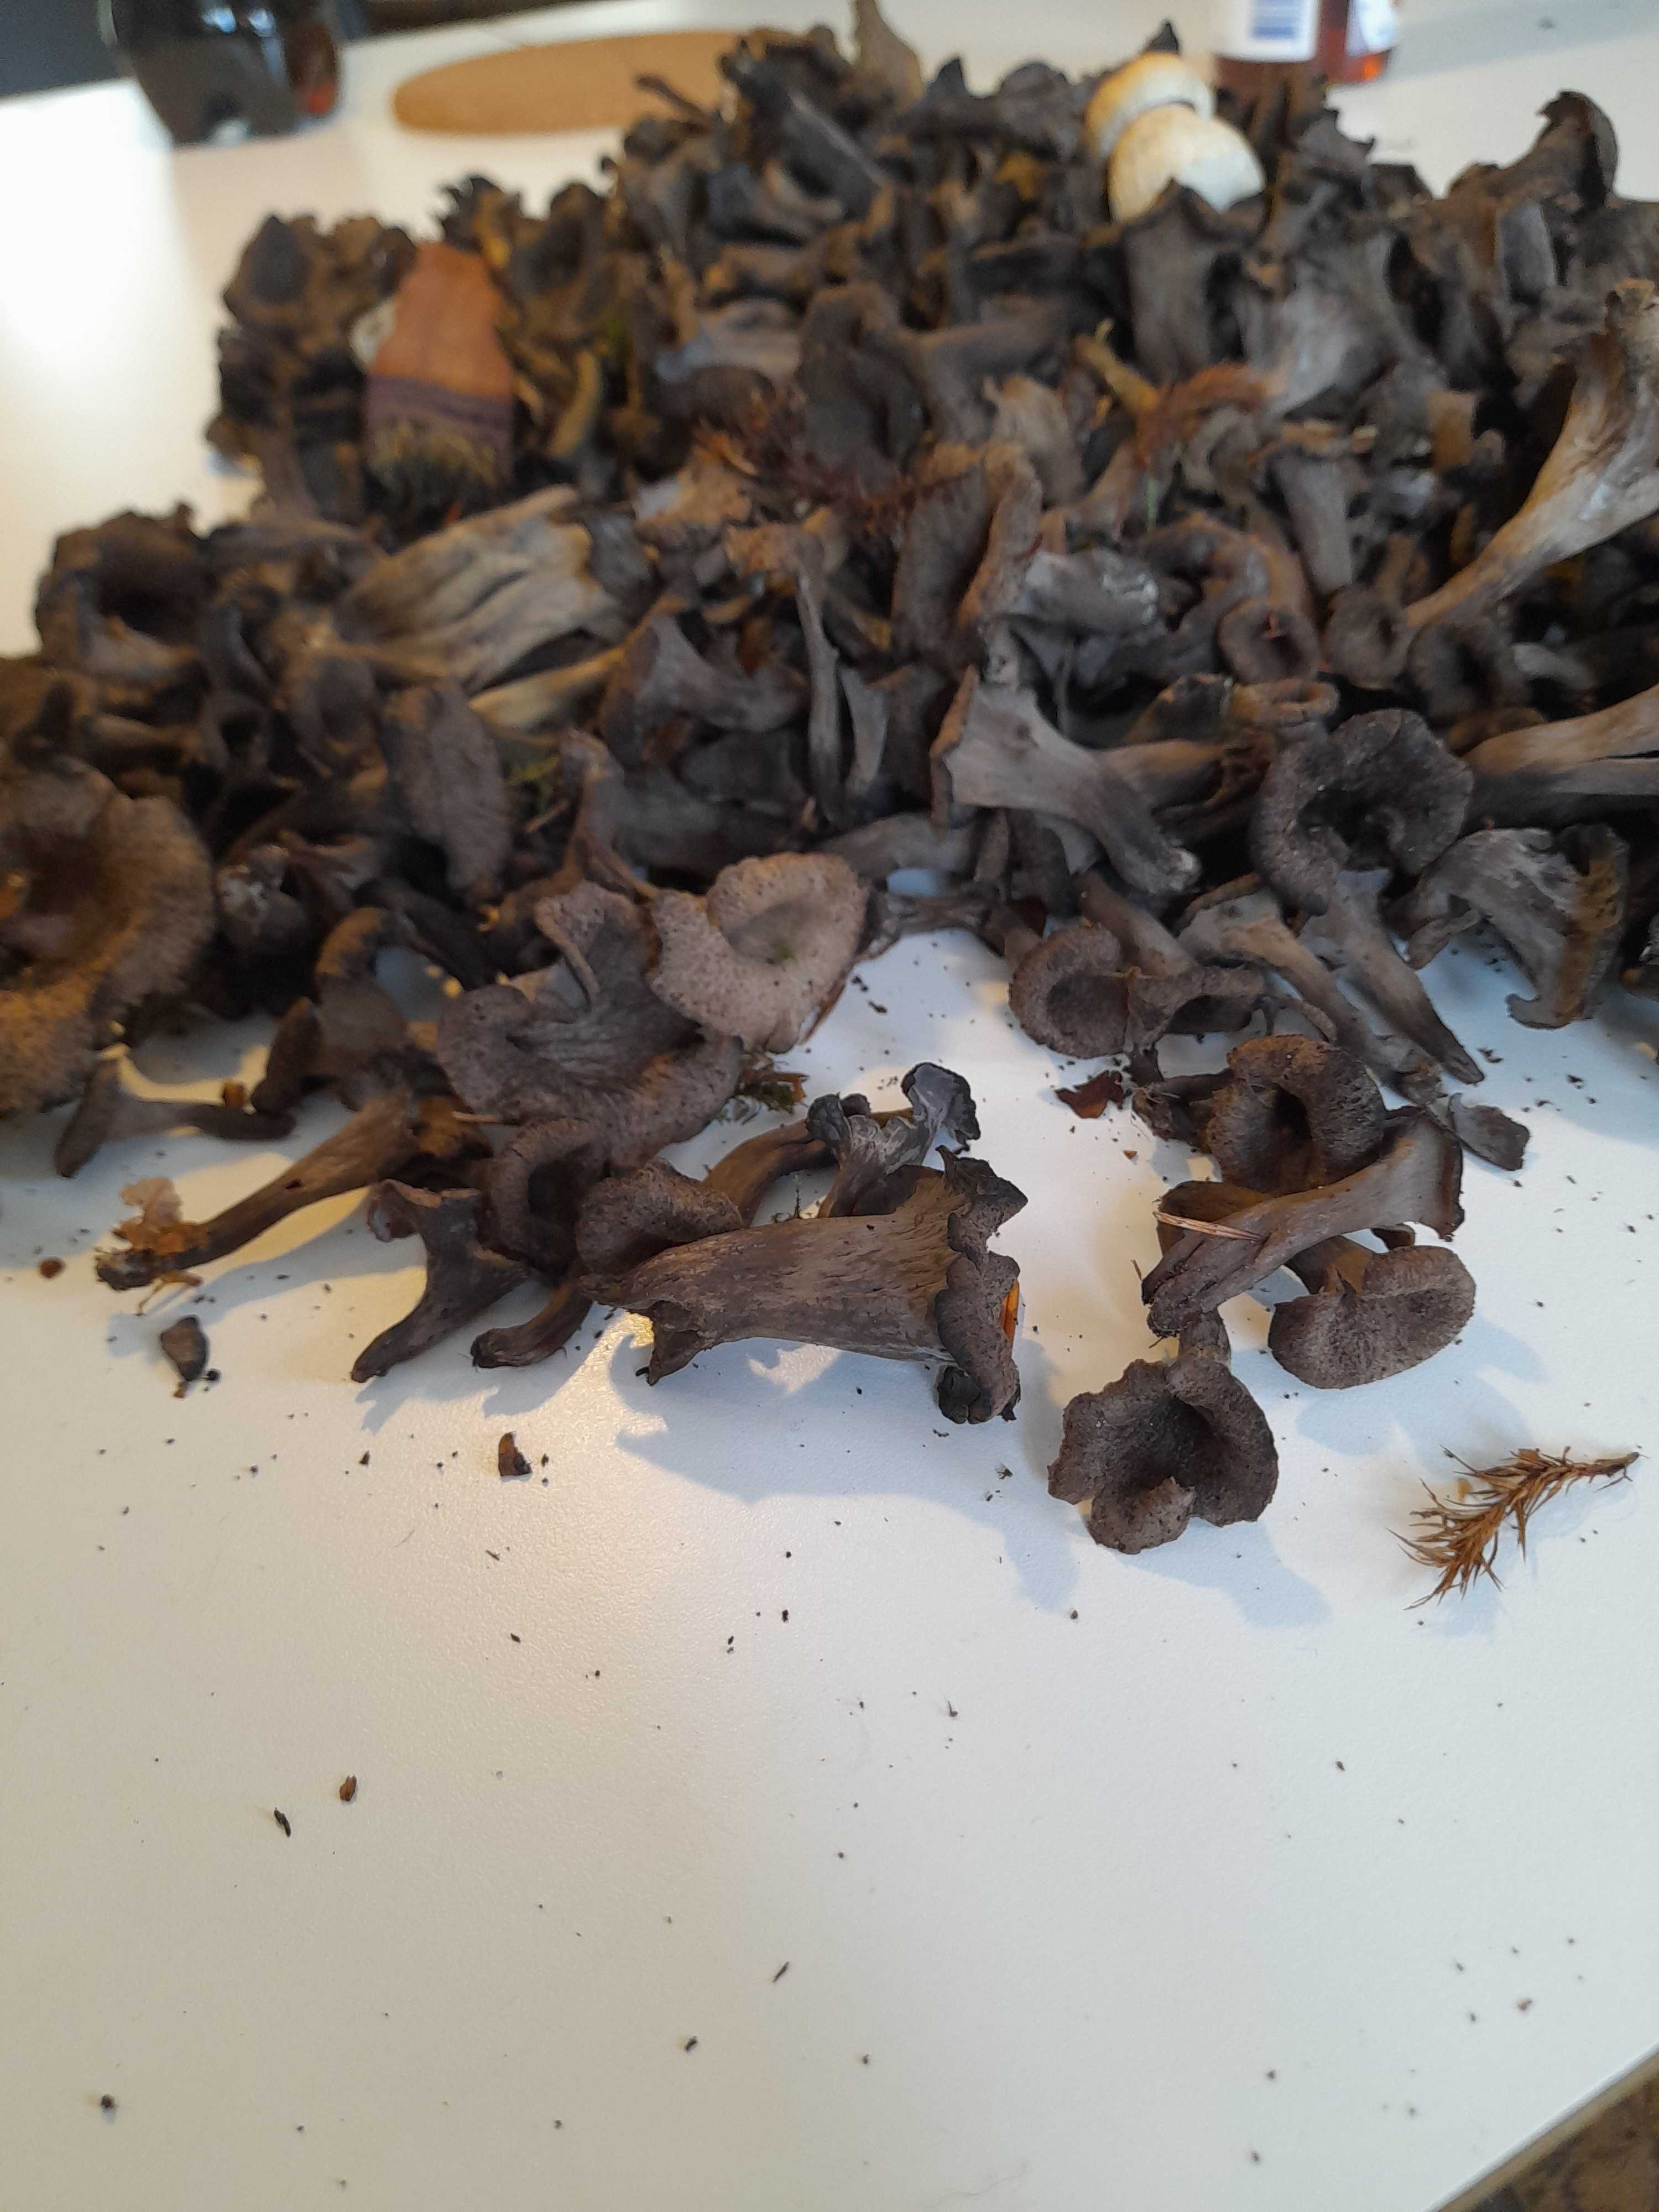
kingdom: Fungi
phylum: Basidiomycota
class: Agaricomycetes
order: Cantharellales
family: Hydnaceae
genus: Craterellus
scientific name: Craterellus cornucopioides
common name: trompetsvamp
